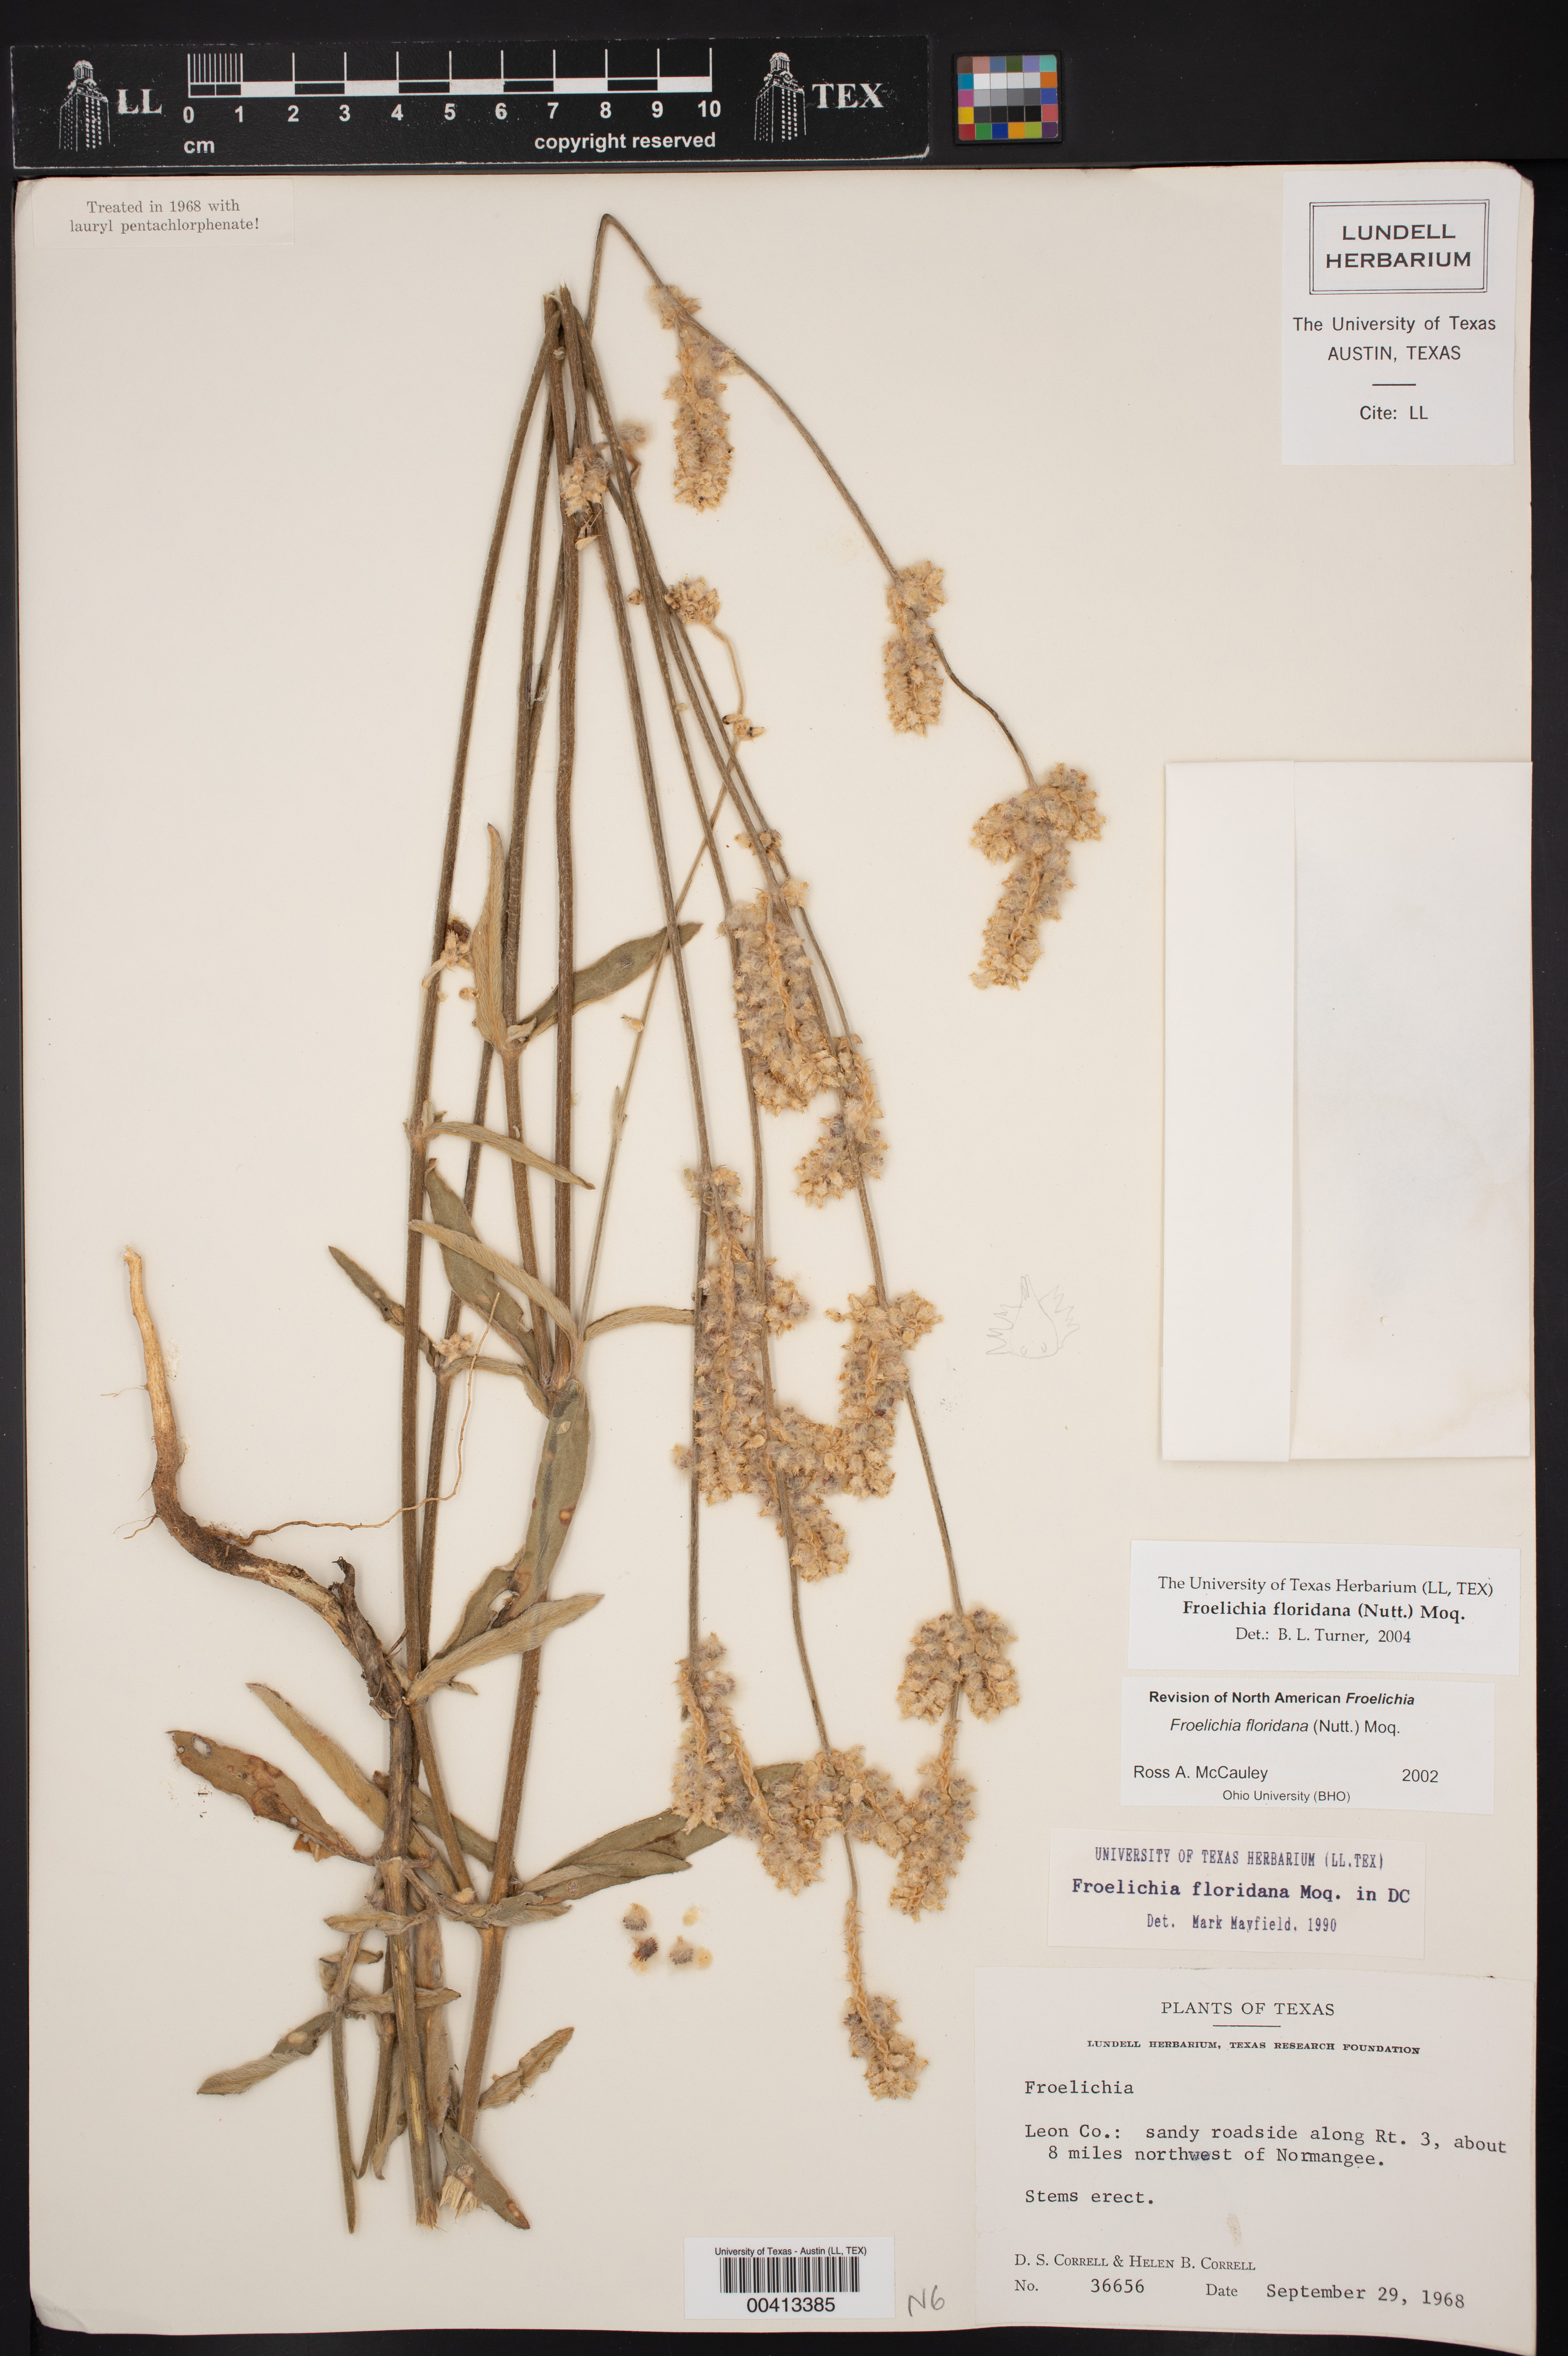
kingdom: Plantae
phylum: Tracheophyta
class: Magnoliopsida
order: Caryophyllales
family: Amaranthaceae
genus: Froelichia
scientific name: Froelichia floridana
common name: Florida snake-cotton
